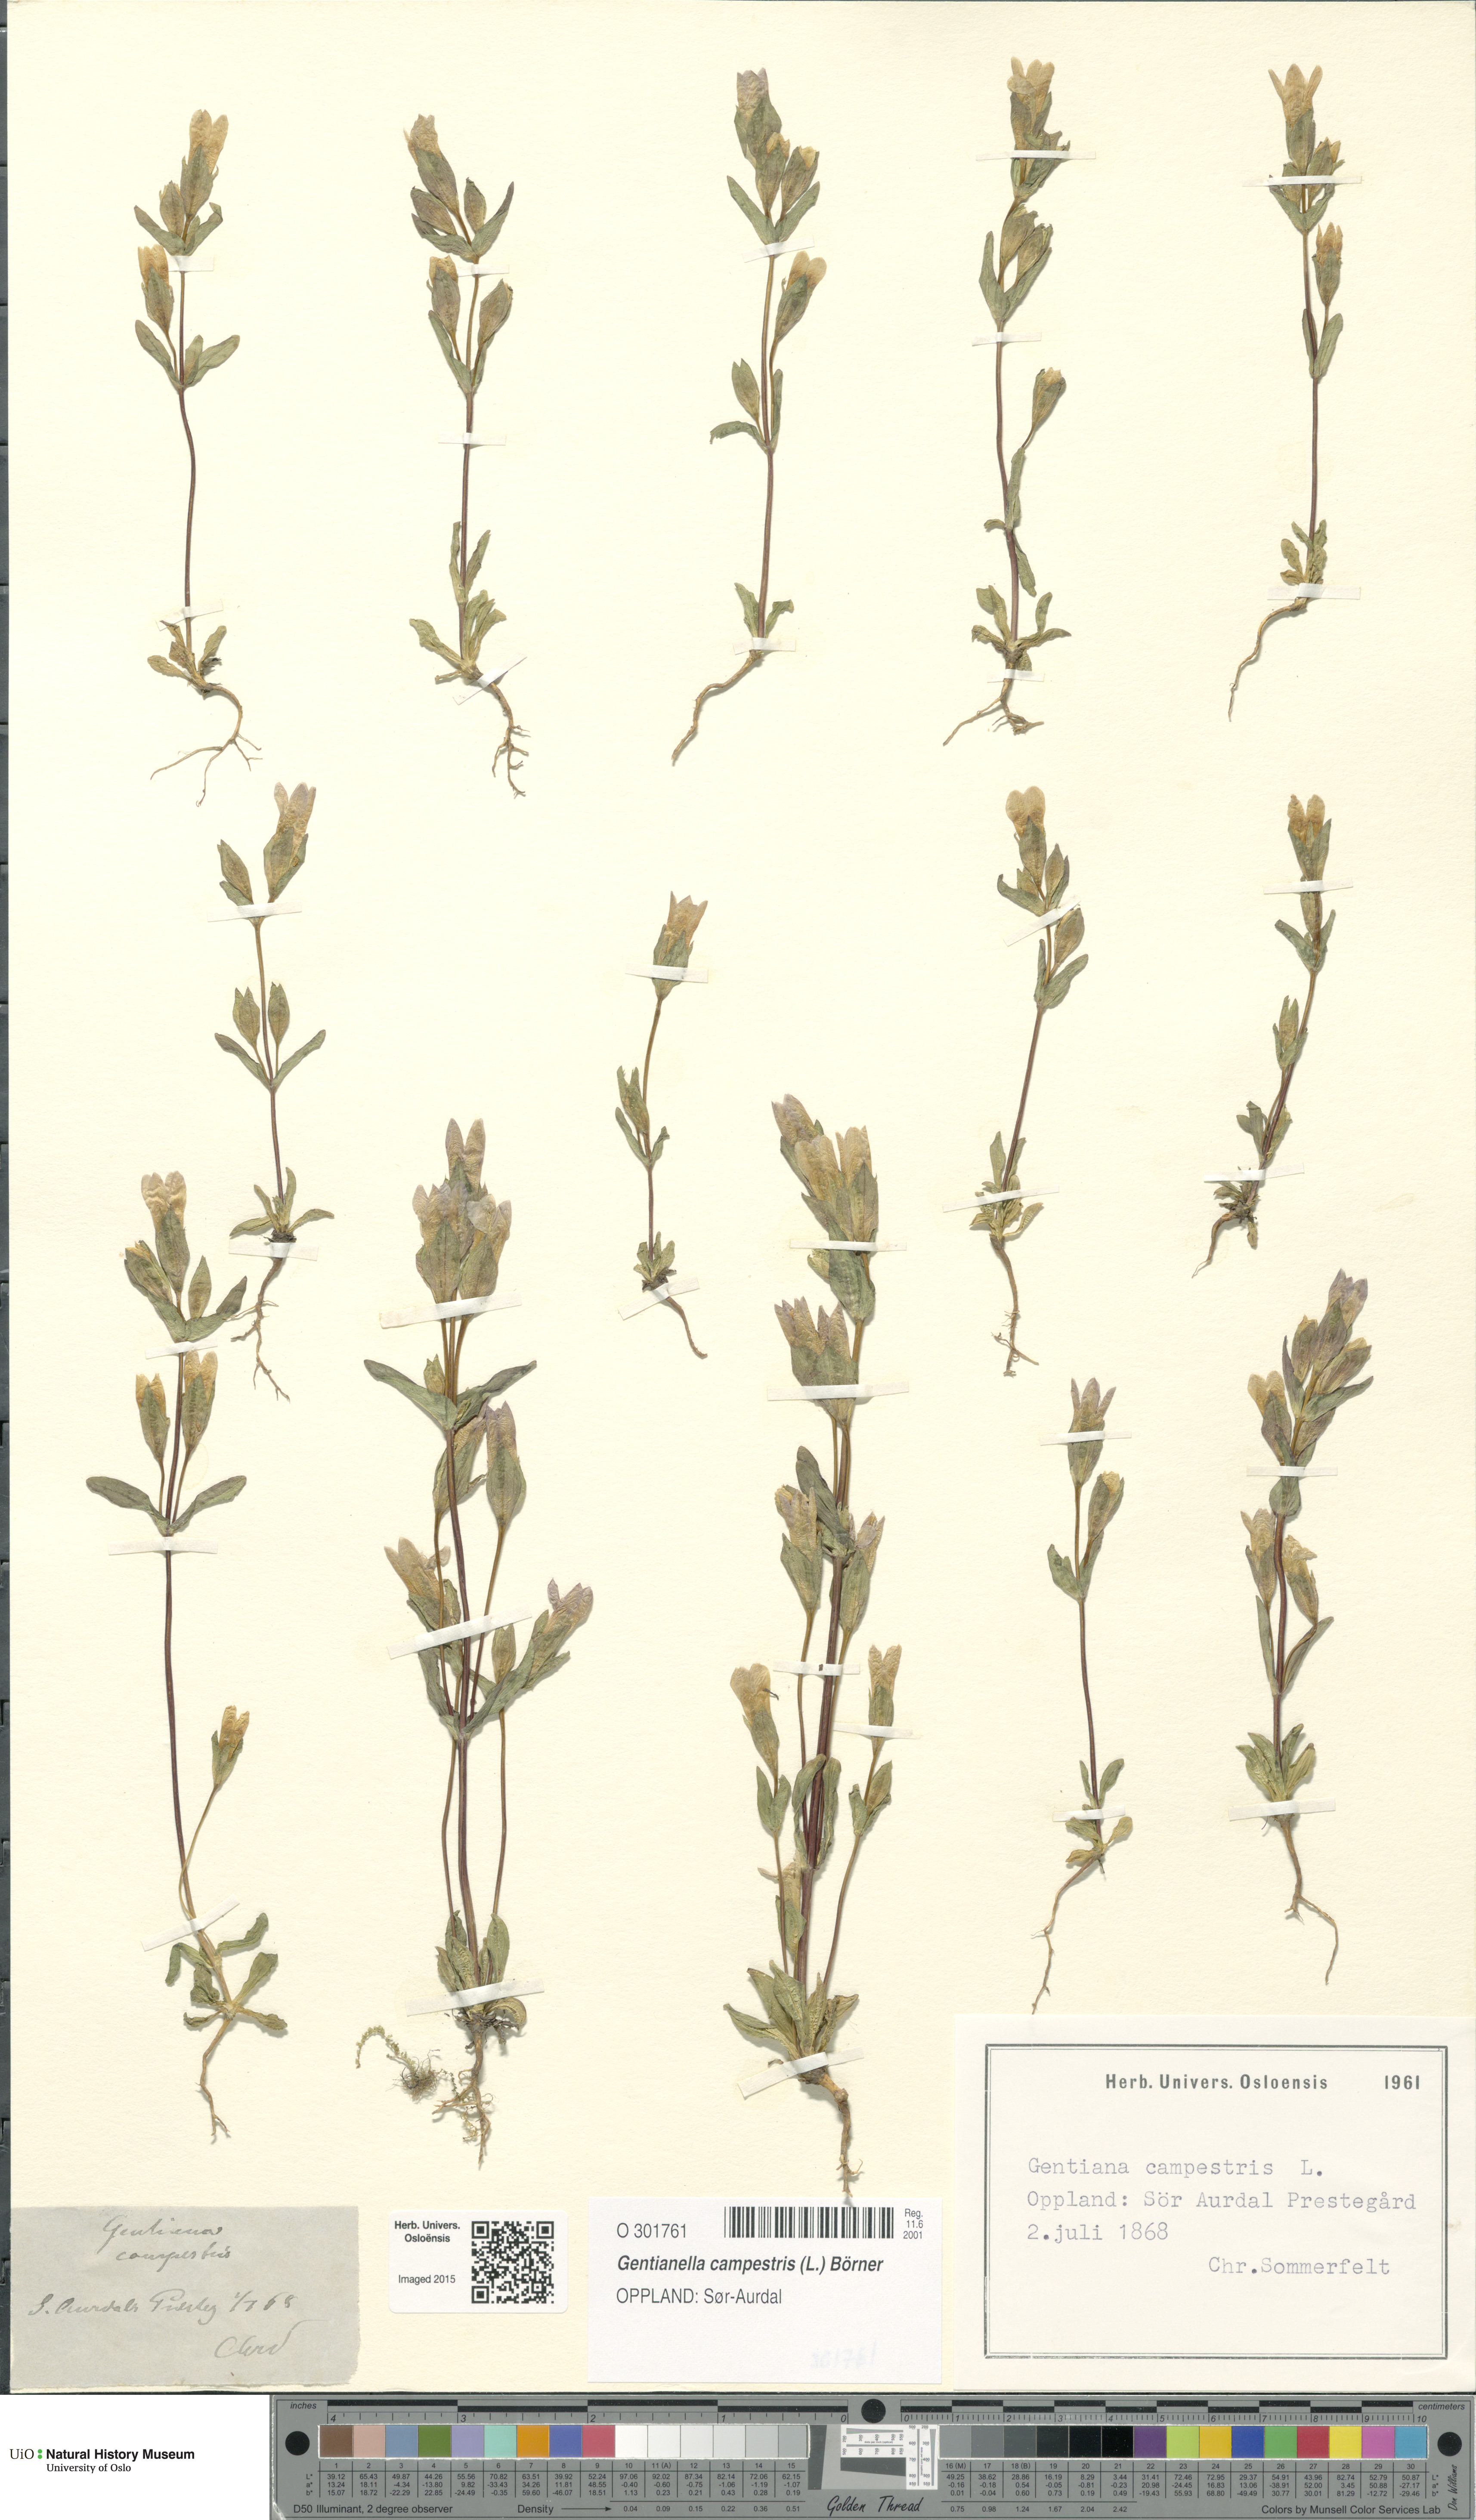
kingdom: Plantae
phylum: Tracheophyta
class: Magnoliopsida
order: Gentianales
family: Gentianaceae
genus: Gentianella
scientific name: Gentianella campestris
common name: Field gentian
